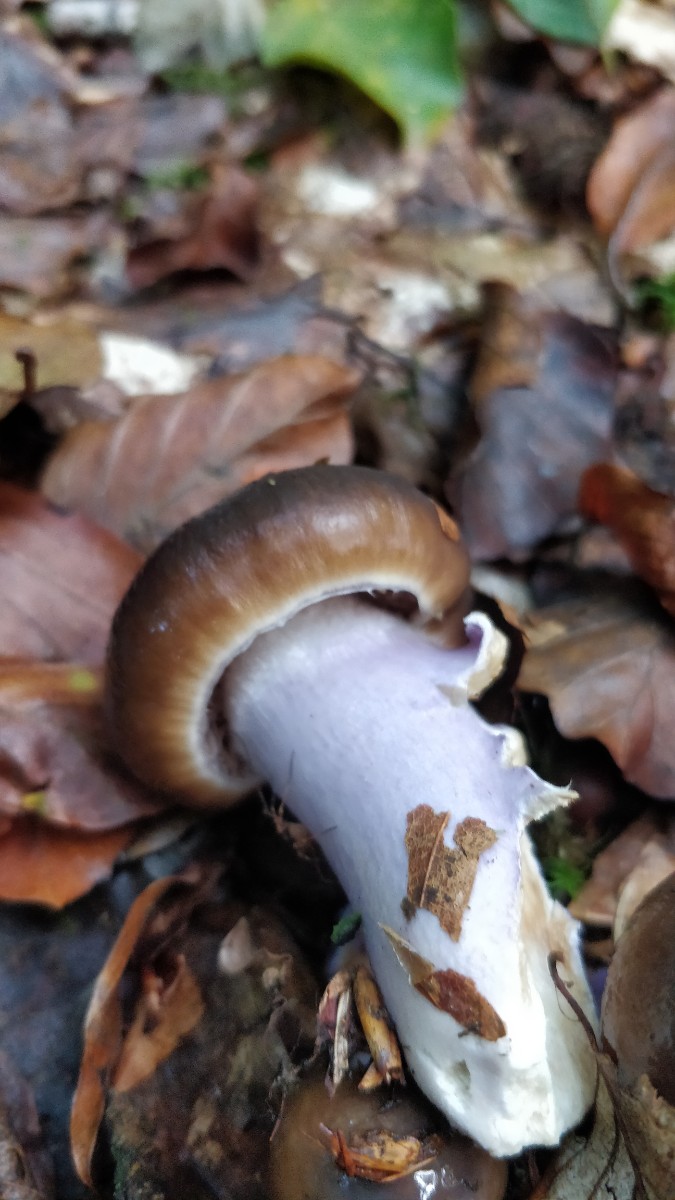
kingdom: Fungi
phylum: Basidiomycota
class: Agaricomycetes
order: Agaricales
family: Cortinariaceae
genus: Cortinarius
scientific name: Cortinarius elatior
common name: høj slørhat
